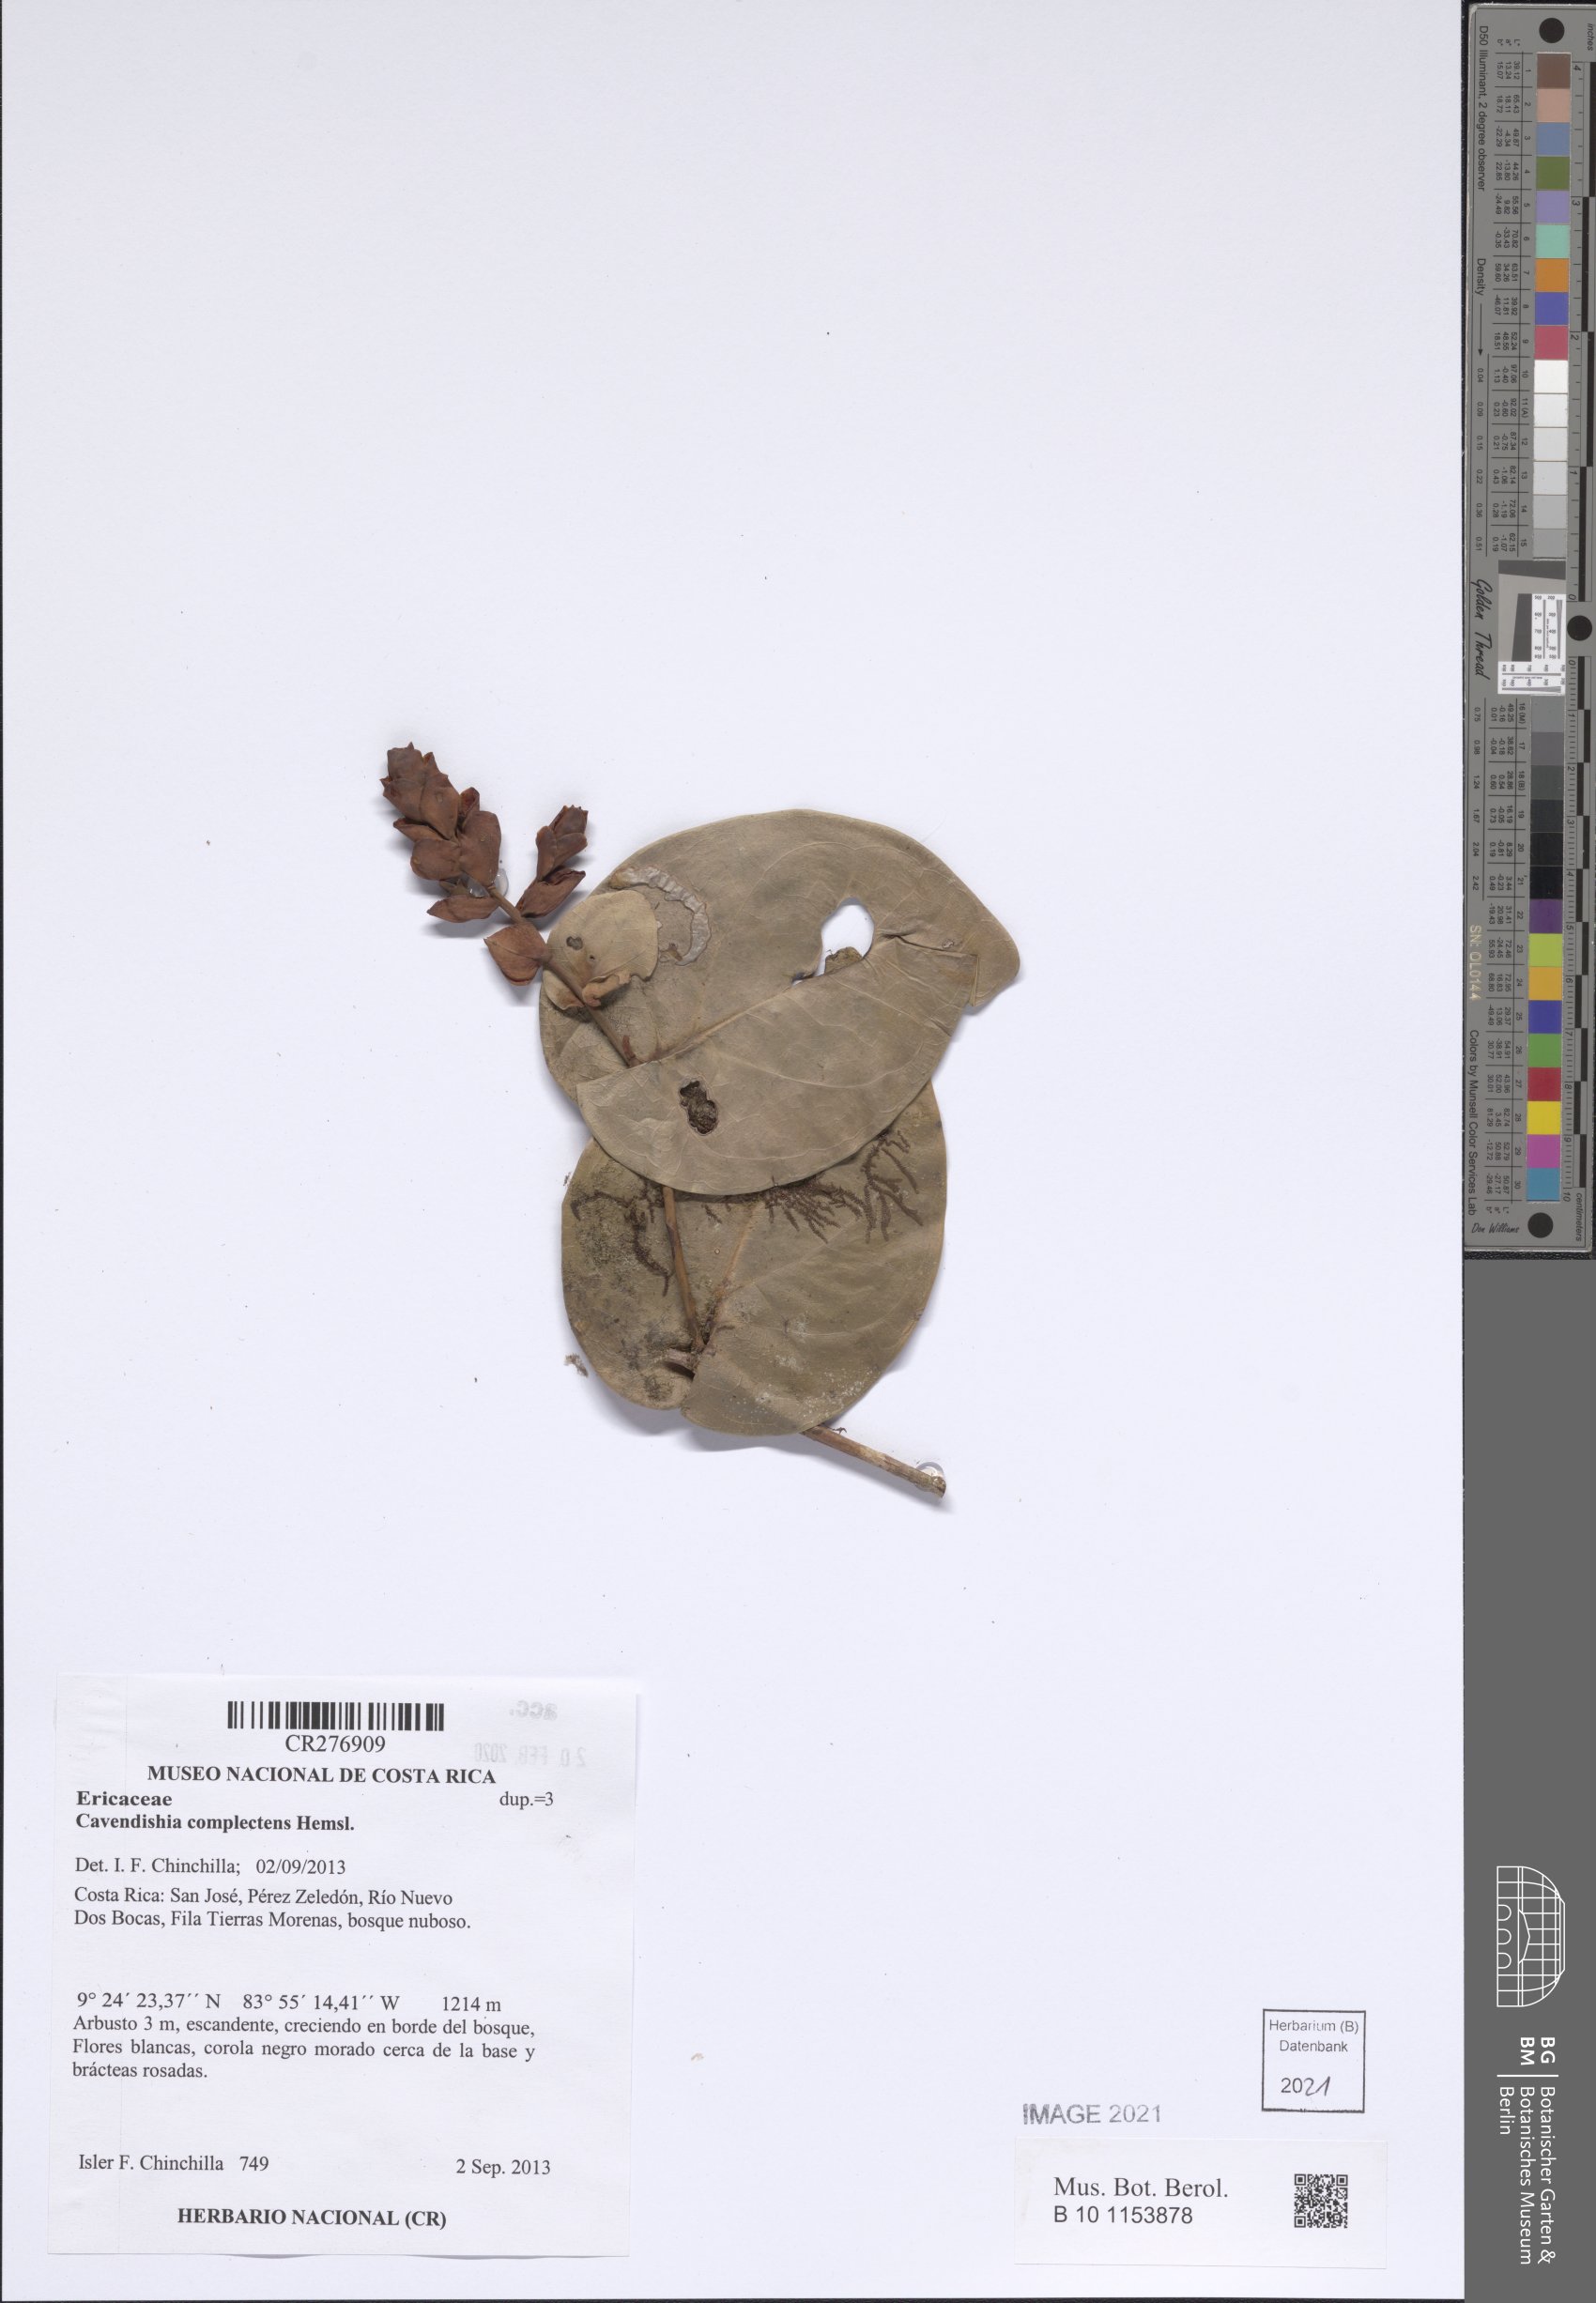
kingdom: Plantae
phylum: Tracheophyta
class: Magnoliopsida
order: Ericales
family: Ericaceae
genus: Cavendishia
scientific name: Cavendishia complectens
